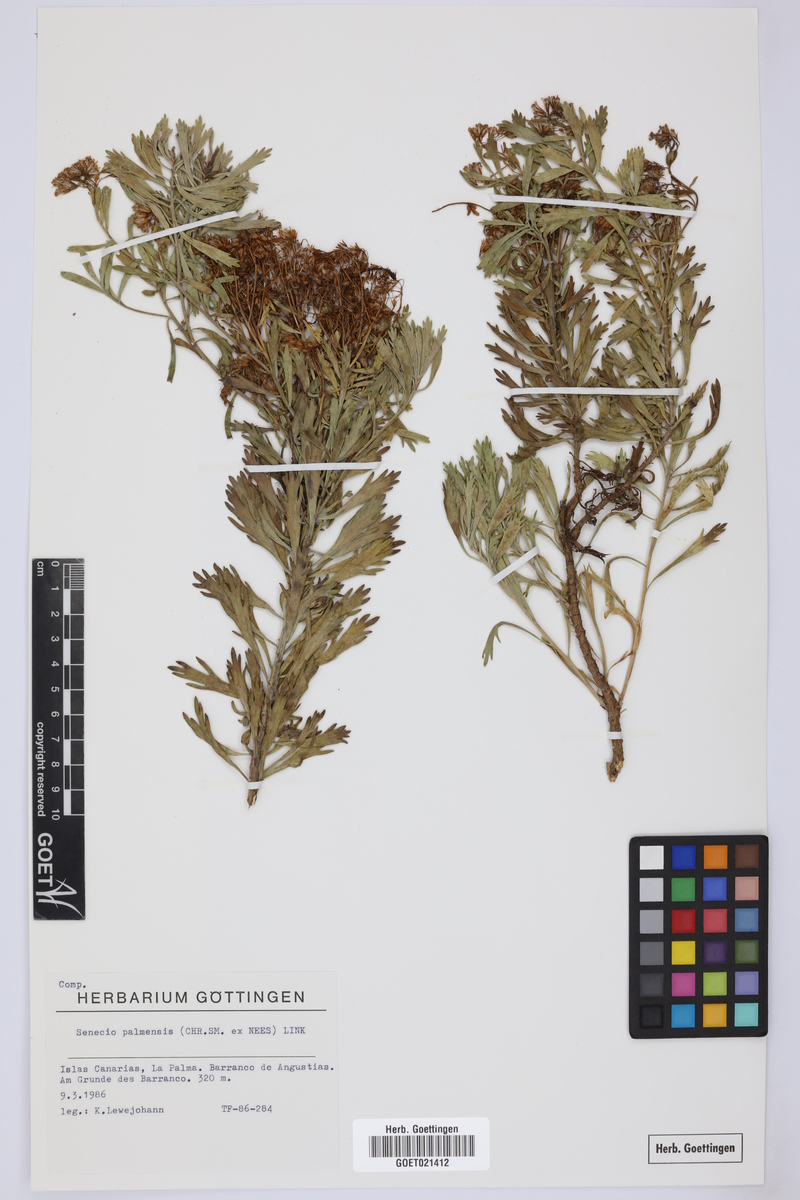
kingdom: Plantae
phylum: Tracheophyta
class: Magnoliopsida
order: Asterales
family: Asteraceae
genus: Bethencourtia
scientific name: Bethencourtia palmensis
